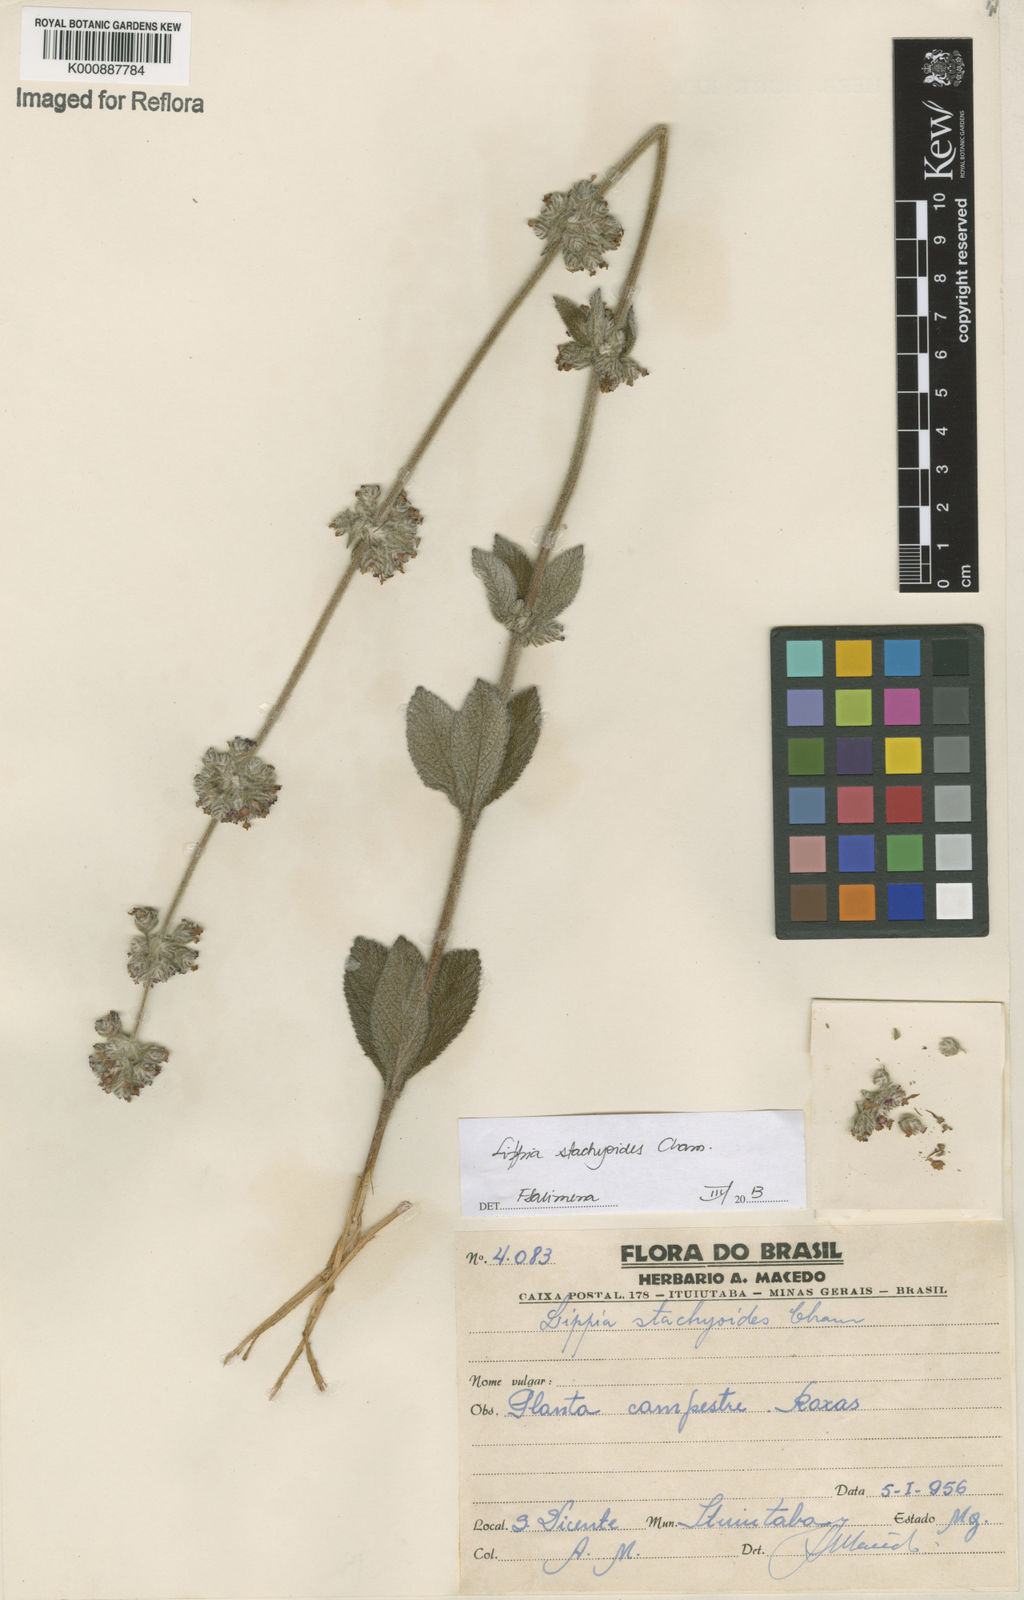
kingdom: Plantae
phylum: Tracheophyta
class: Magnoliopsida
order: Lamiales
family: Verbenaceae
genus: Lippia
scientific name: Lippia stachyoides
